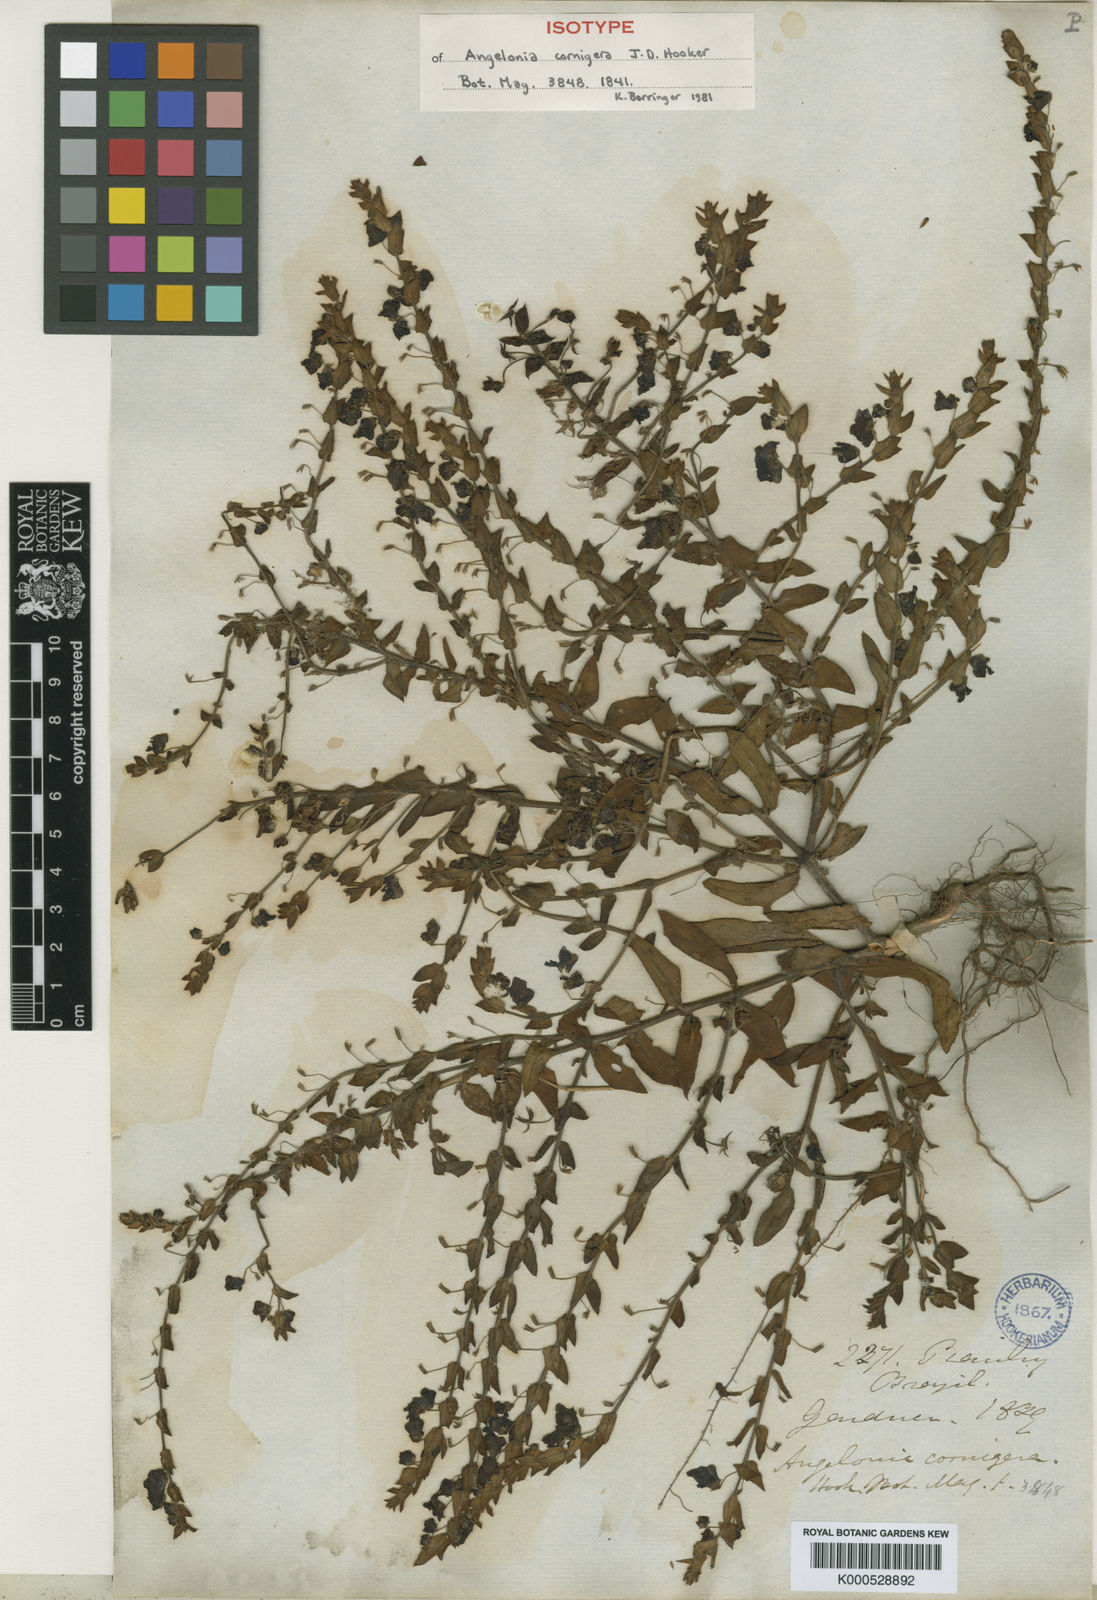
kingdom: Plantae
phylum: Tracheophyta
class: Magnoliopsida
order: Lamiales
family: Plantaginaceae
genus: Angelonia
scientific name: Angelonia cornigera
